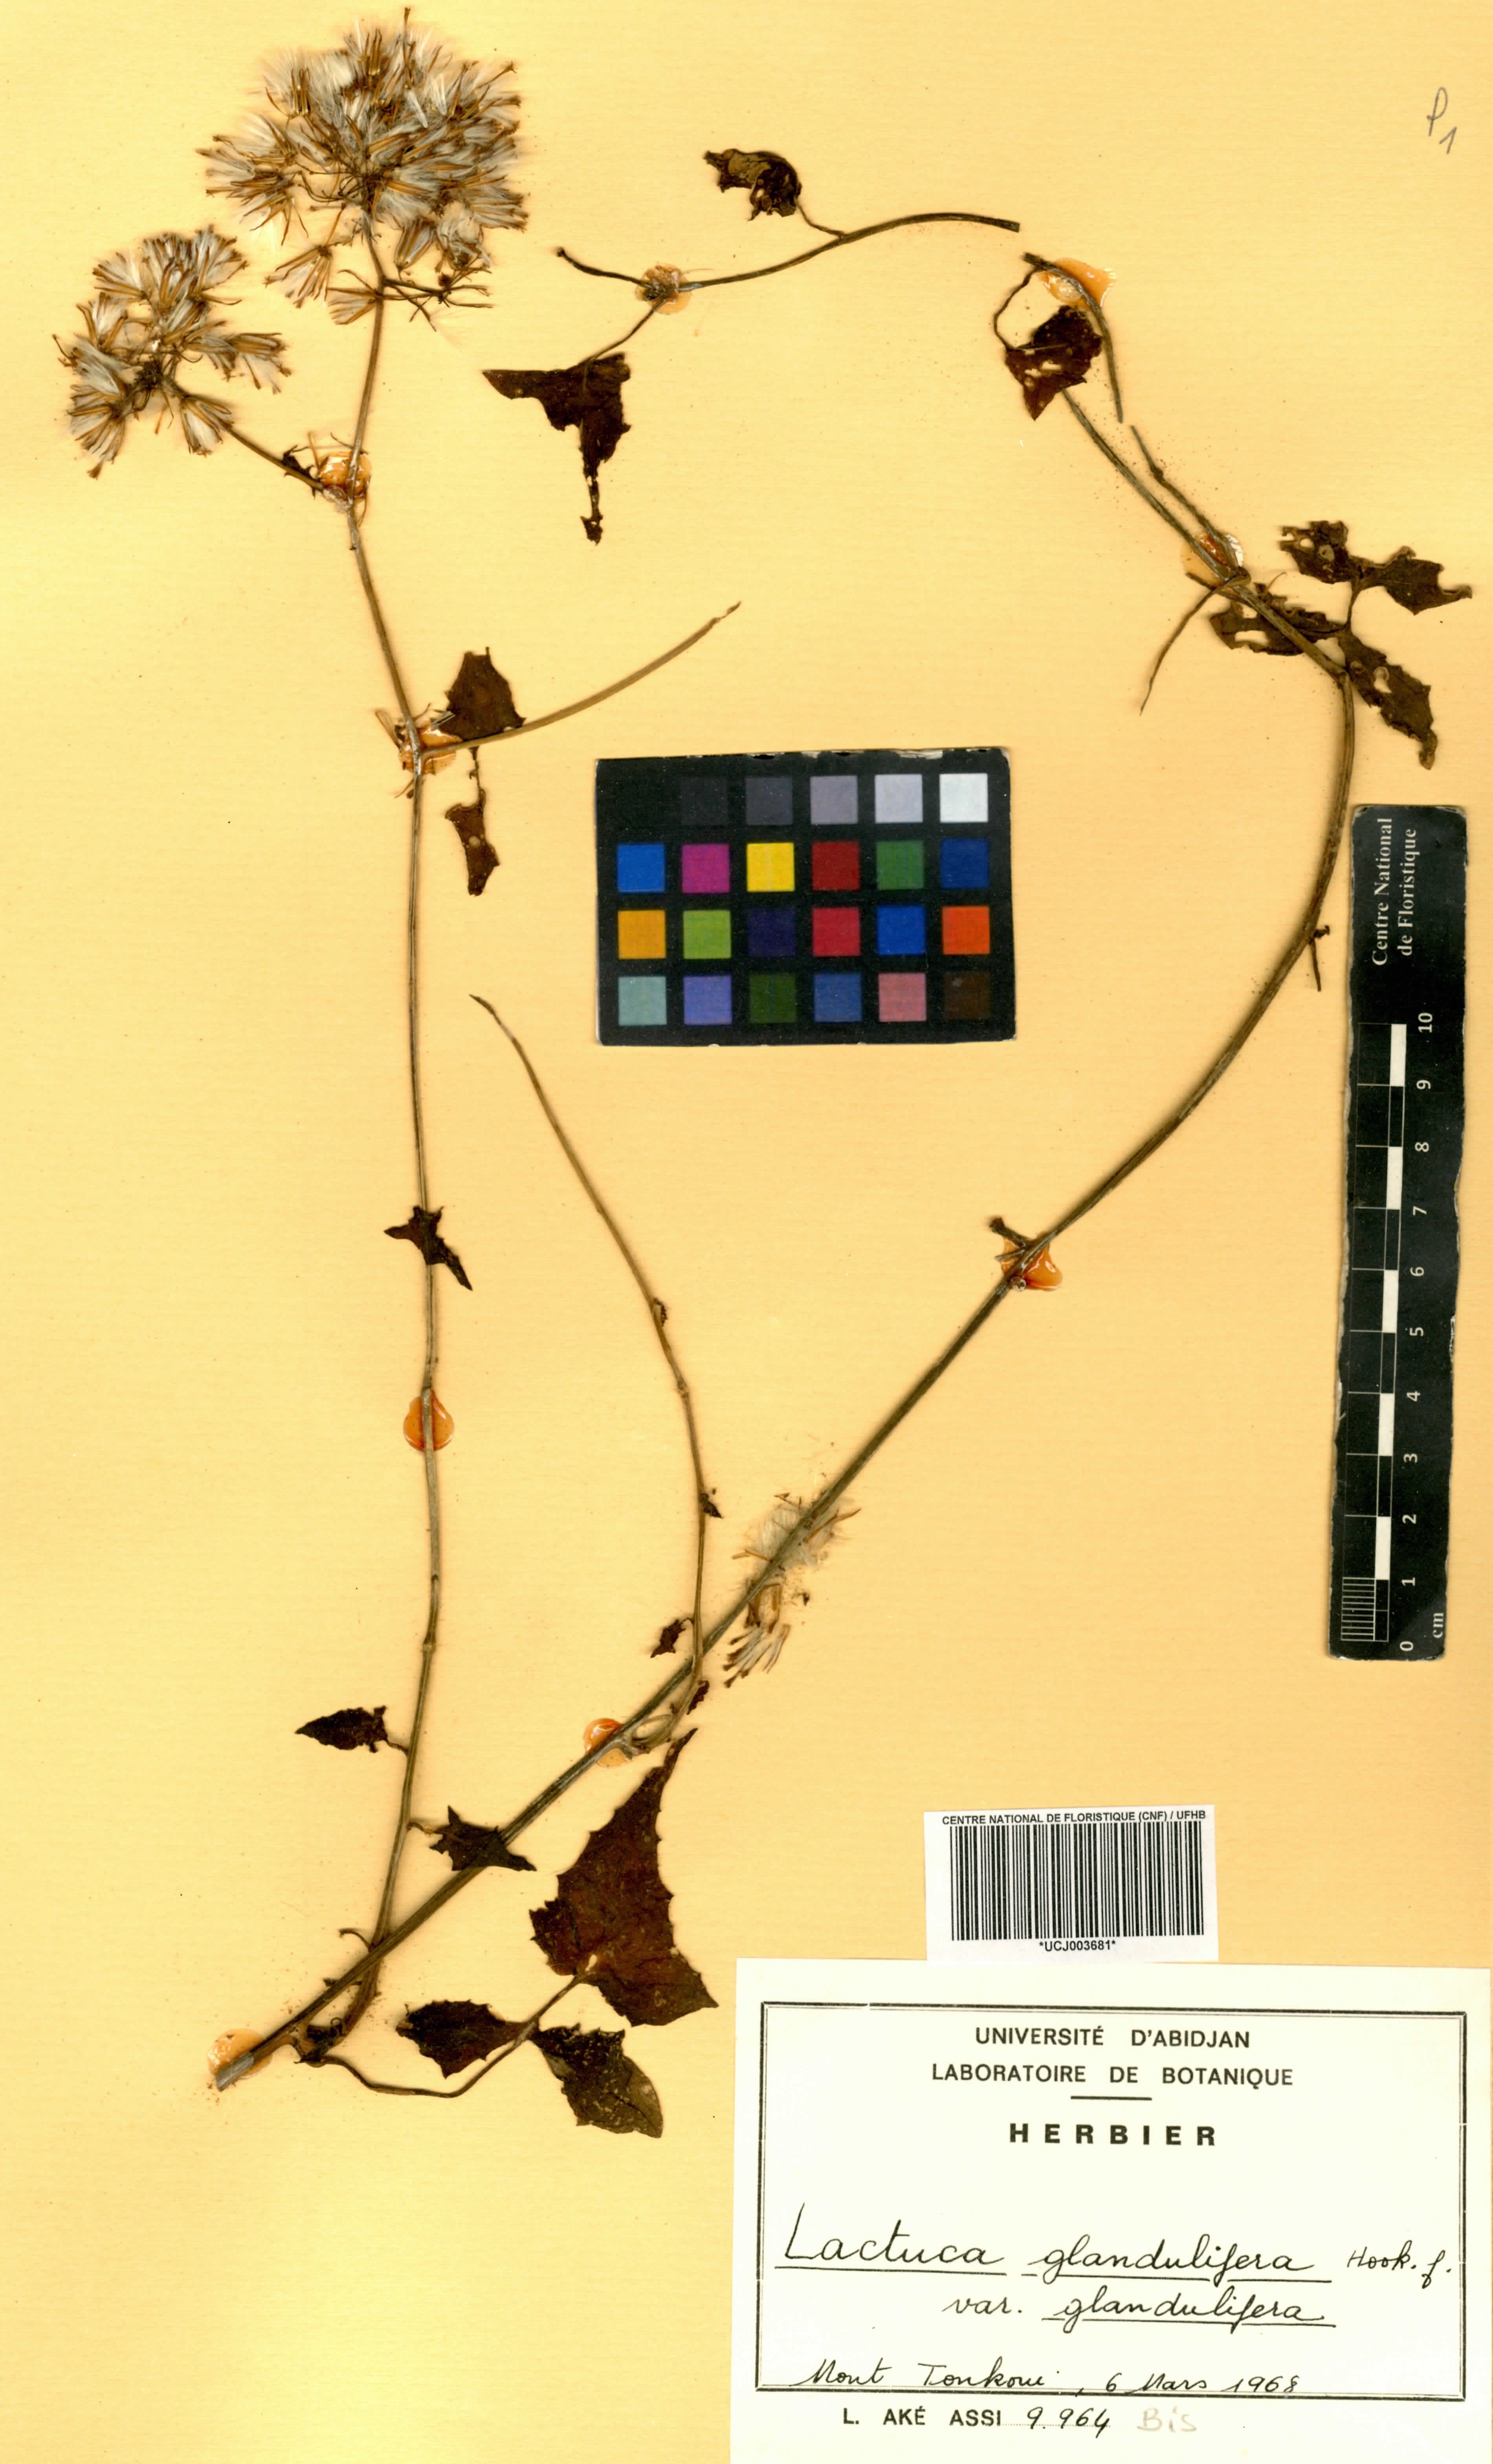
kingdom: Plantae
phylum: Tracheophyta
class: Magnoliopsida
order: Asterales
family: Asteraceae
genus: Lactuca
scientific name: Lactuca glandulifera
